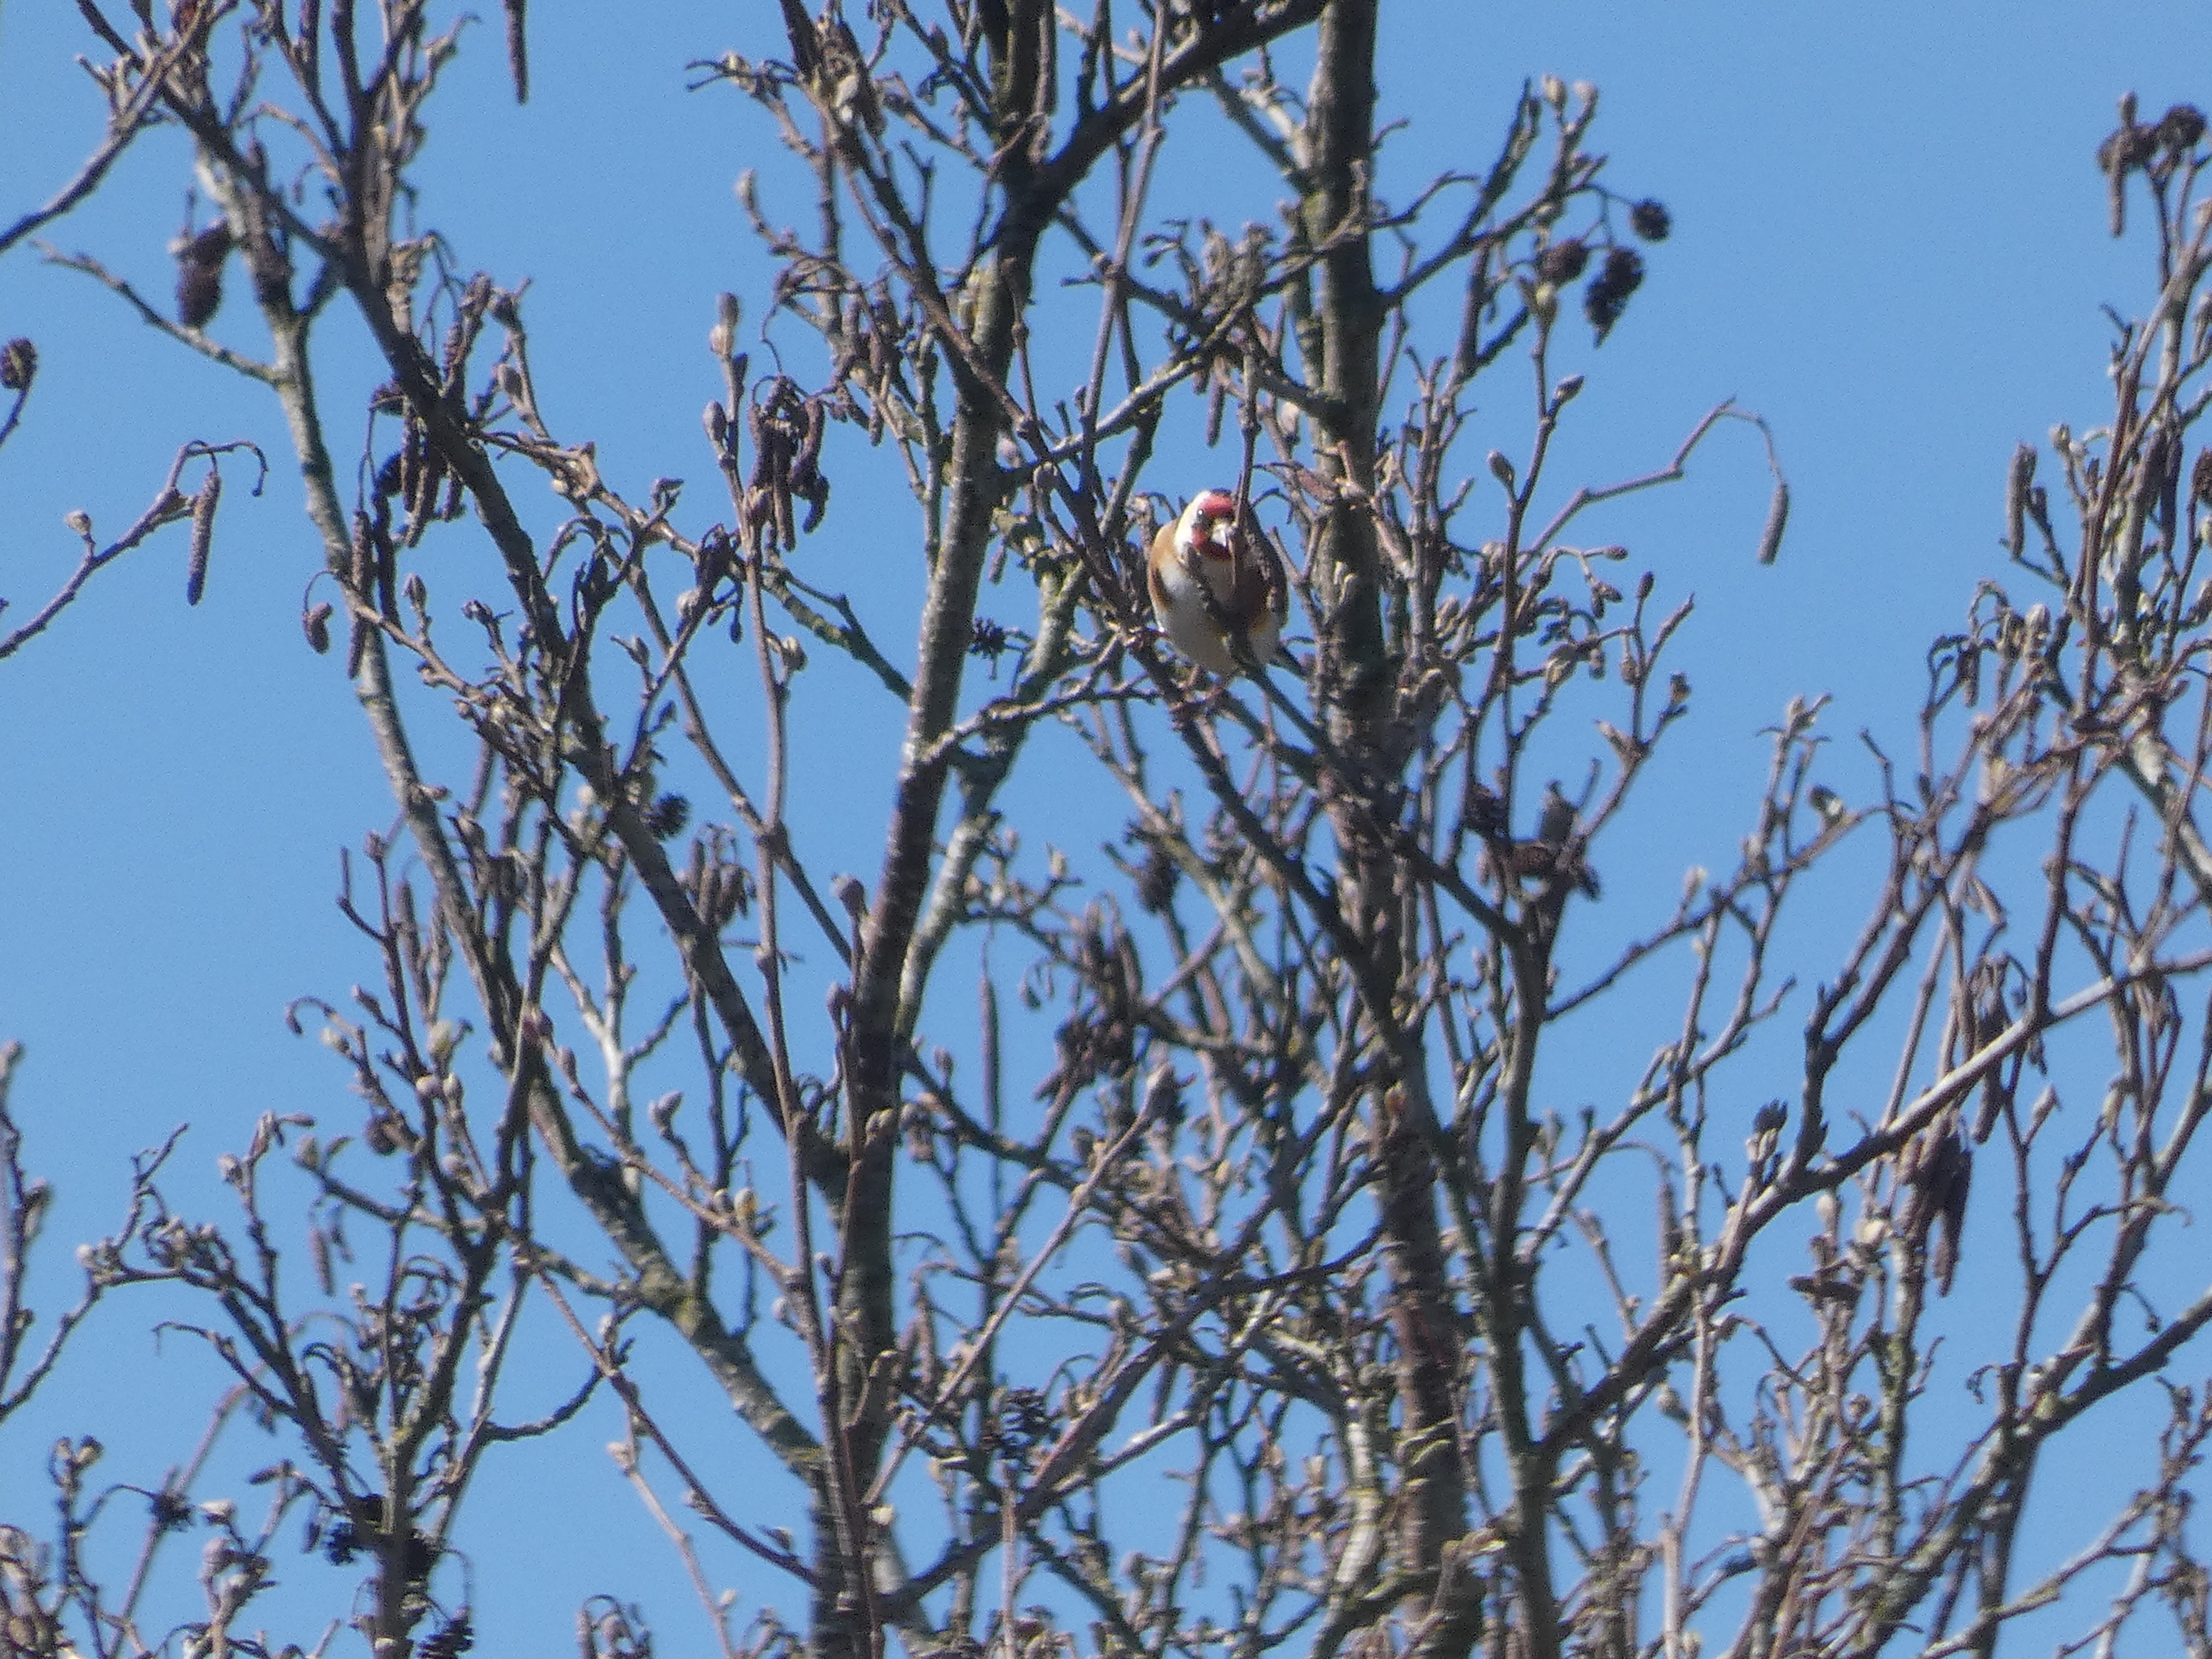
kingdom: Animalia
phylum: Chordata
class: Aves
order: Passeriformes
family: Fringillidae
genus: Carduelis
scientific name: Carduelis carduelis
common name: Stillits
